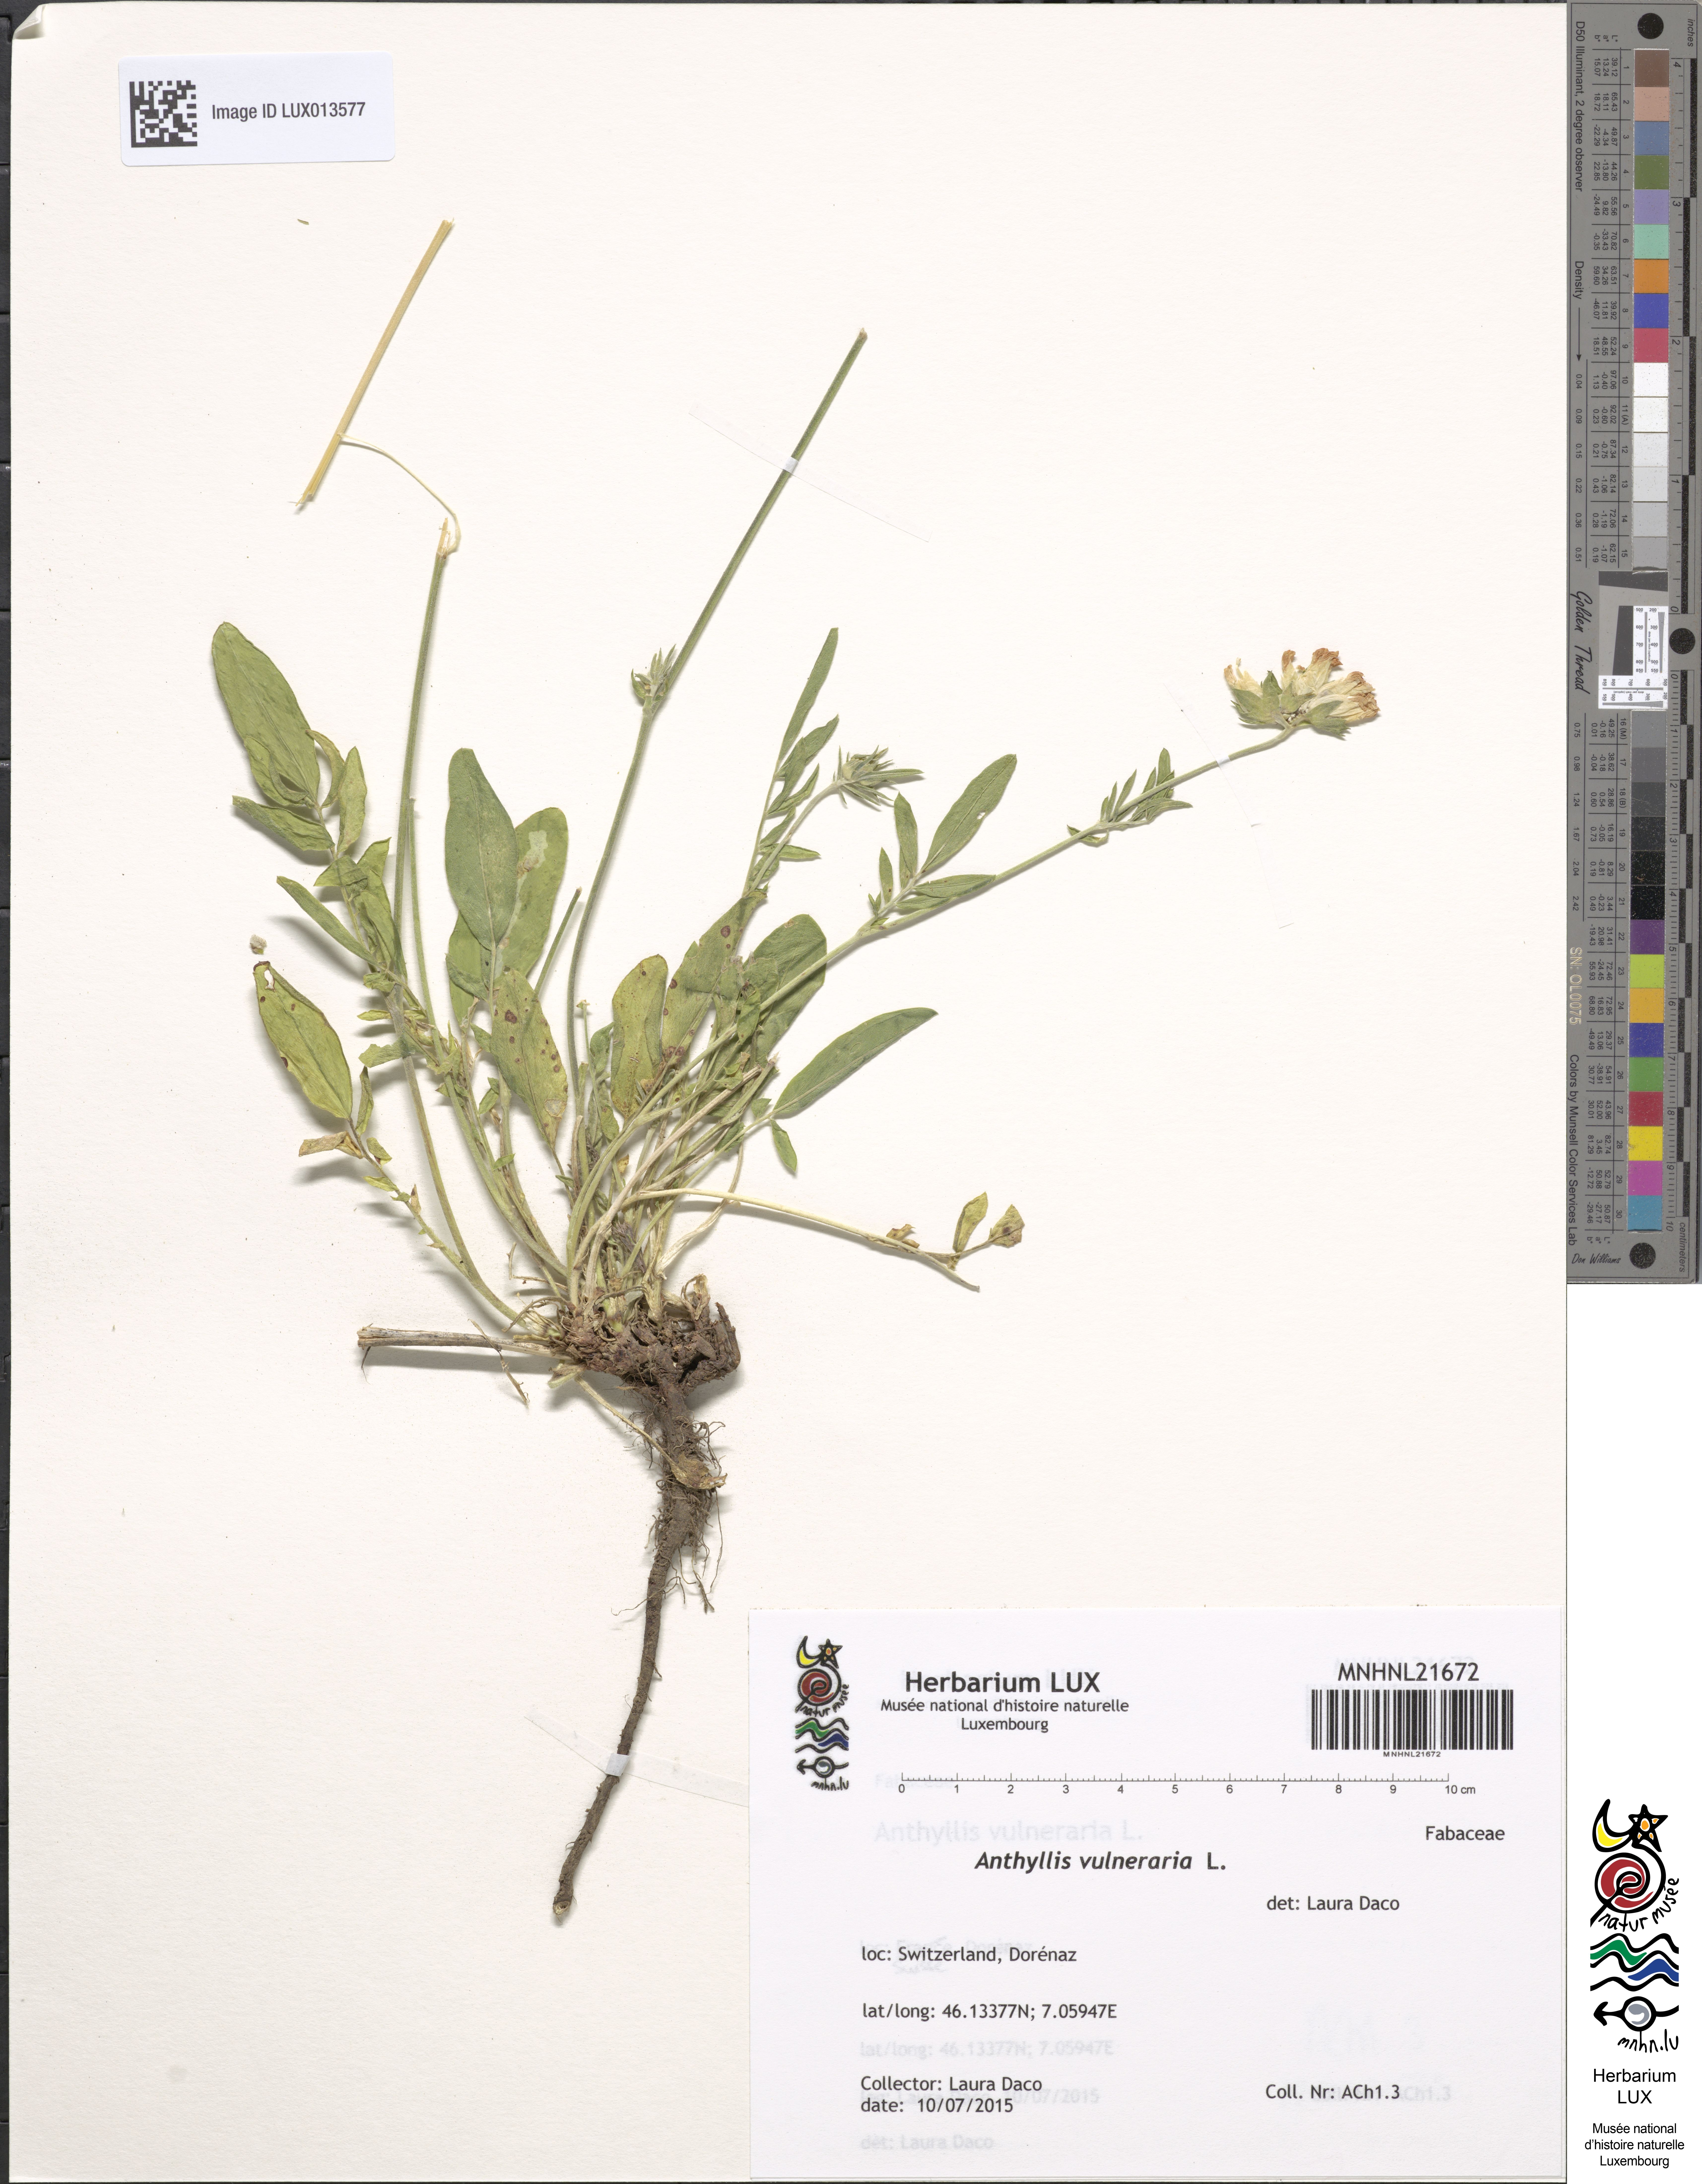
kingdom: Plantae
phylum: Tracheophyta
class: Magnoliopsida
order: Fabales
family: Fabaceae
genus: Anthyllis
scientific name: Anthyllis vulneraria
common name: Kidney vetch
